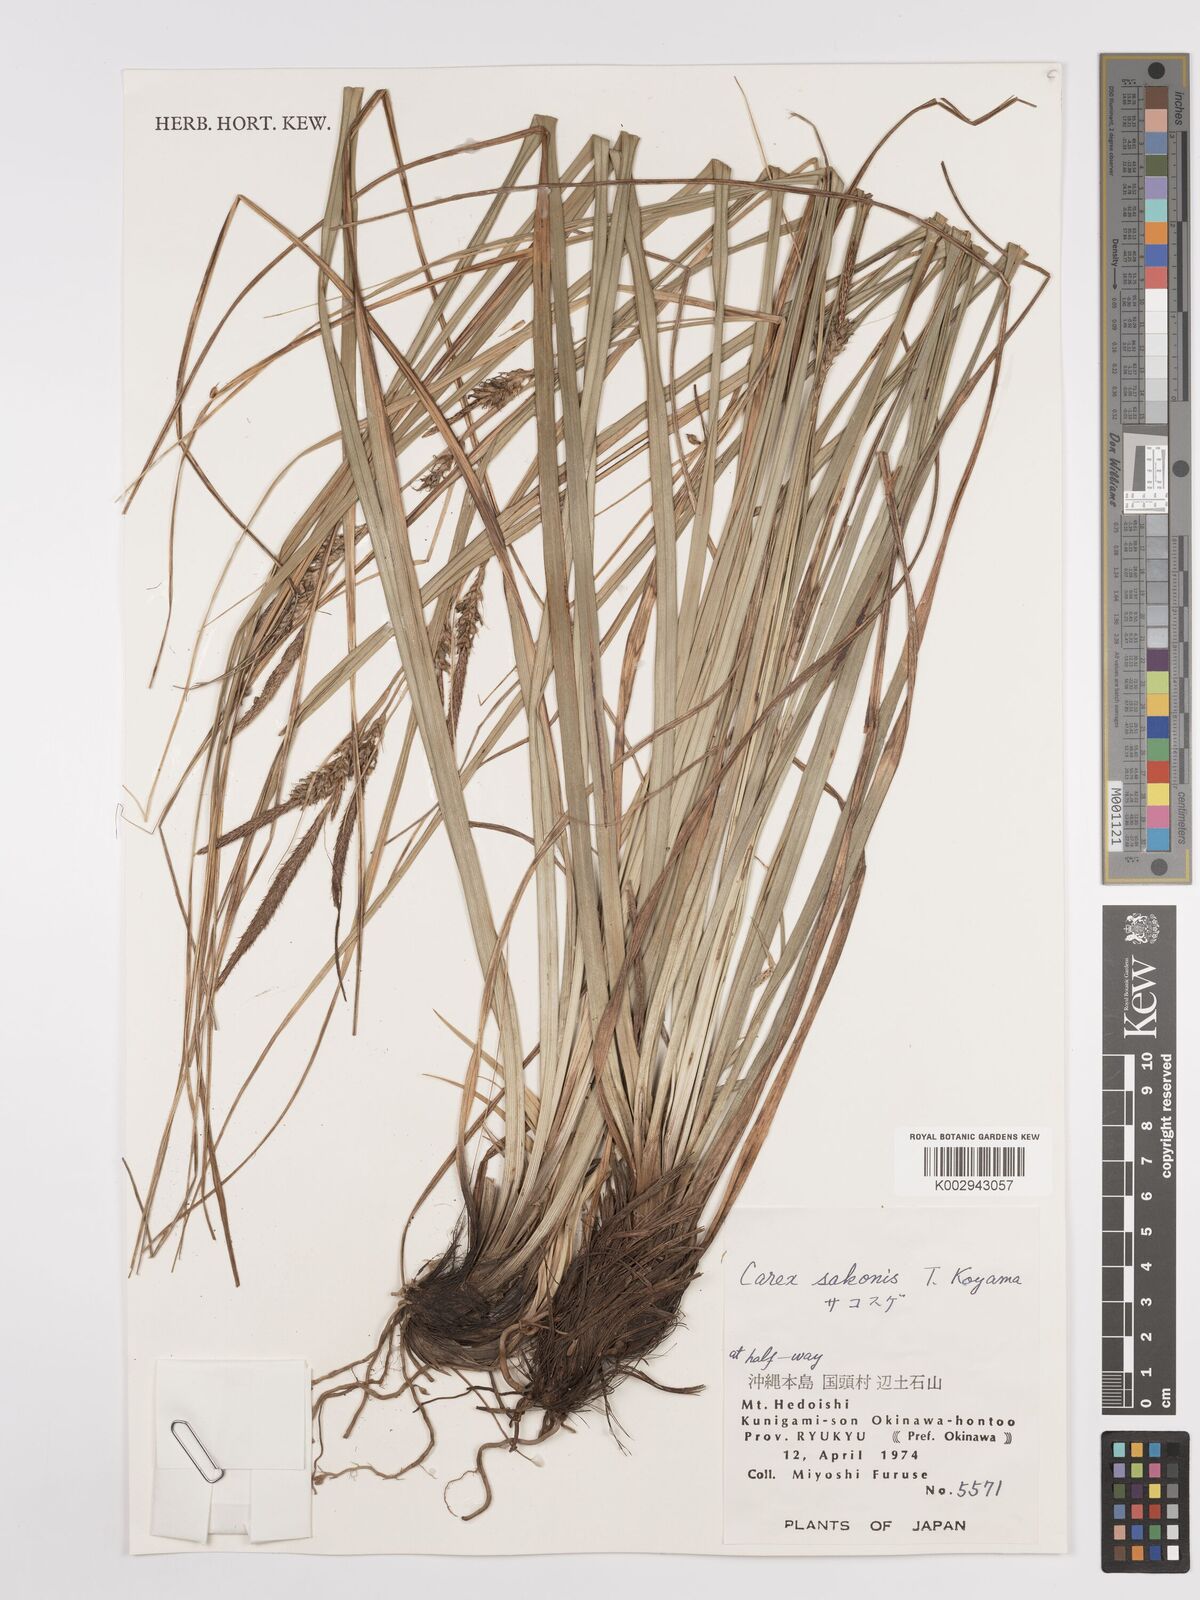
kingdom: Plantae
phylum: Tracheophyta
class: Liliopsida
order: Poales
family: Cyperaceae
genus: Carex
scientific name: Carex umbrosa
